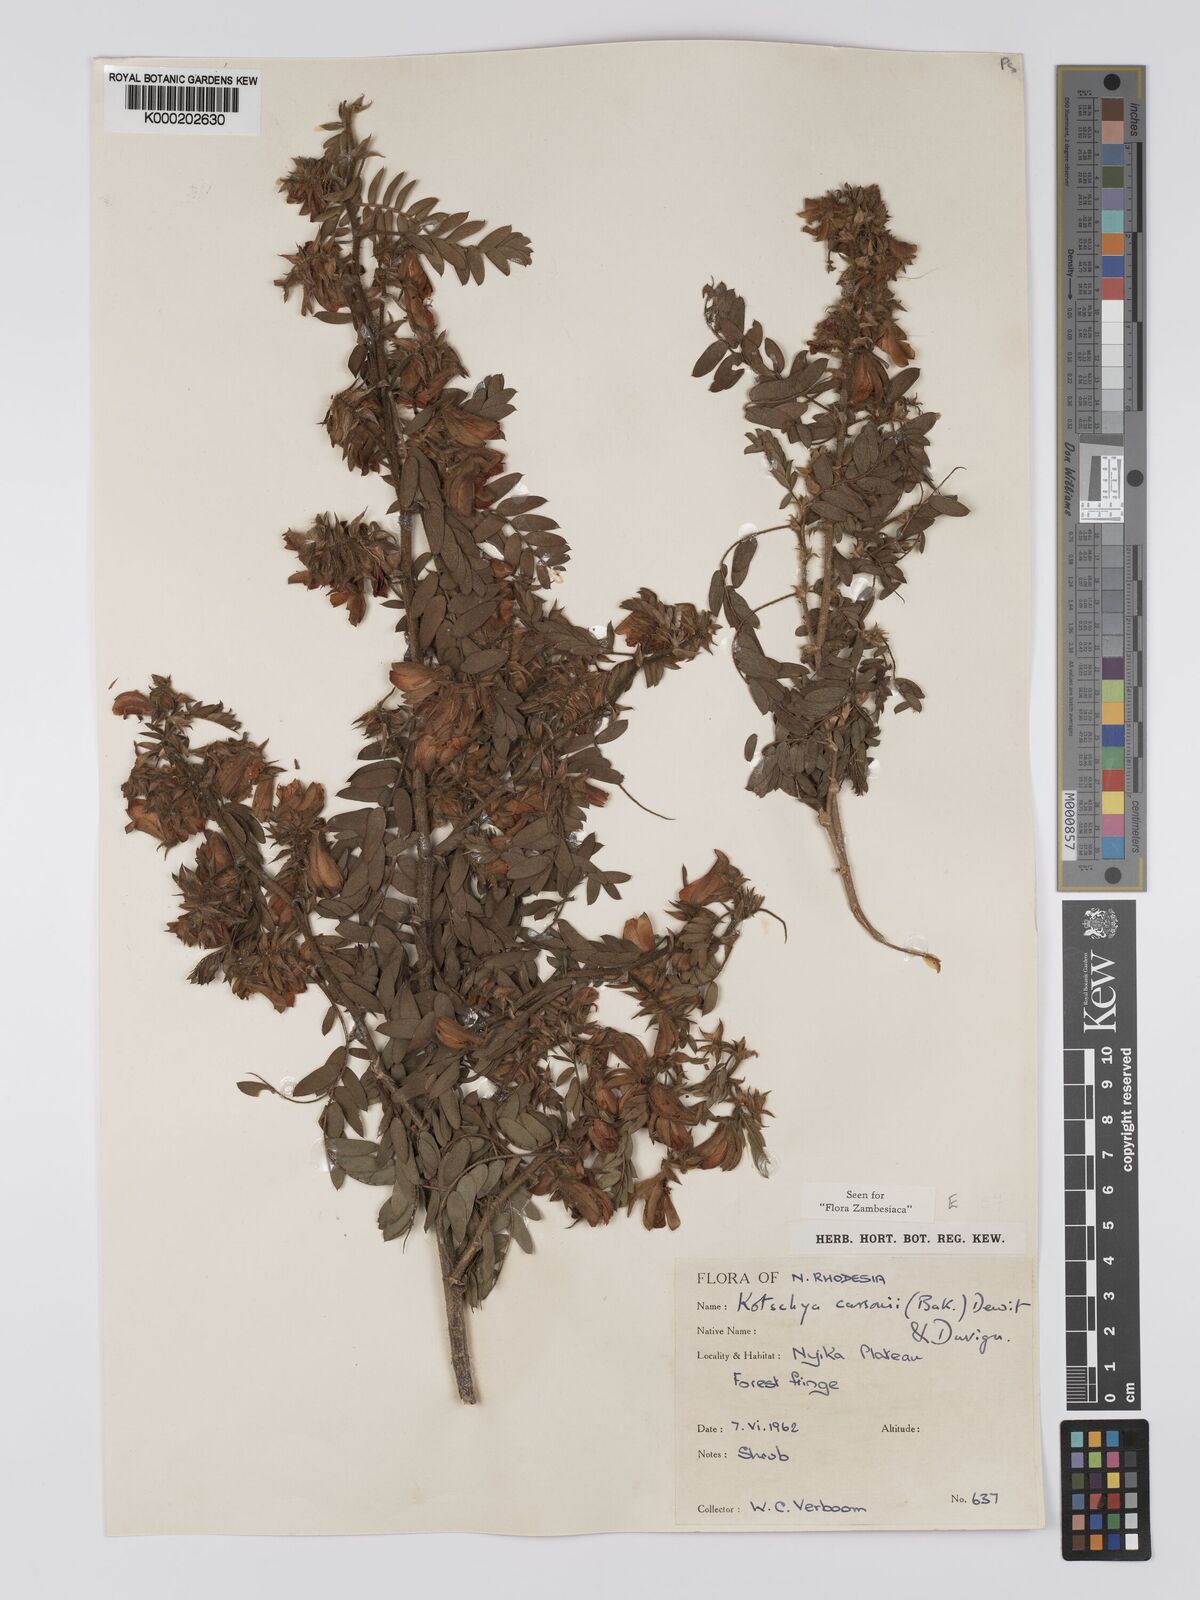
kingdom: Plantae
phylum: Tracheophyta
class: Magnoliopsida
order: Fabales
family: Fabaceae
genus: Kotschya
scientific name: Kotschya carsonii
